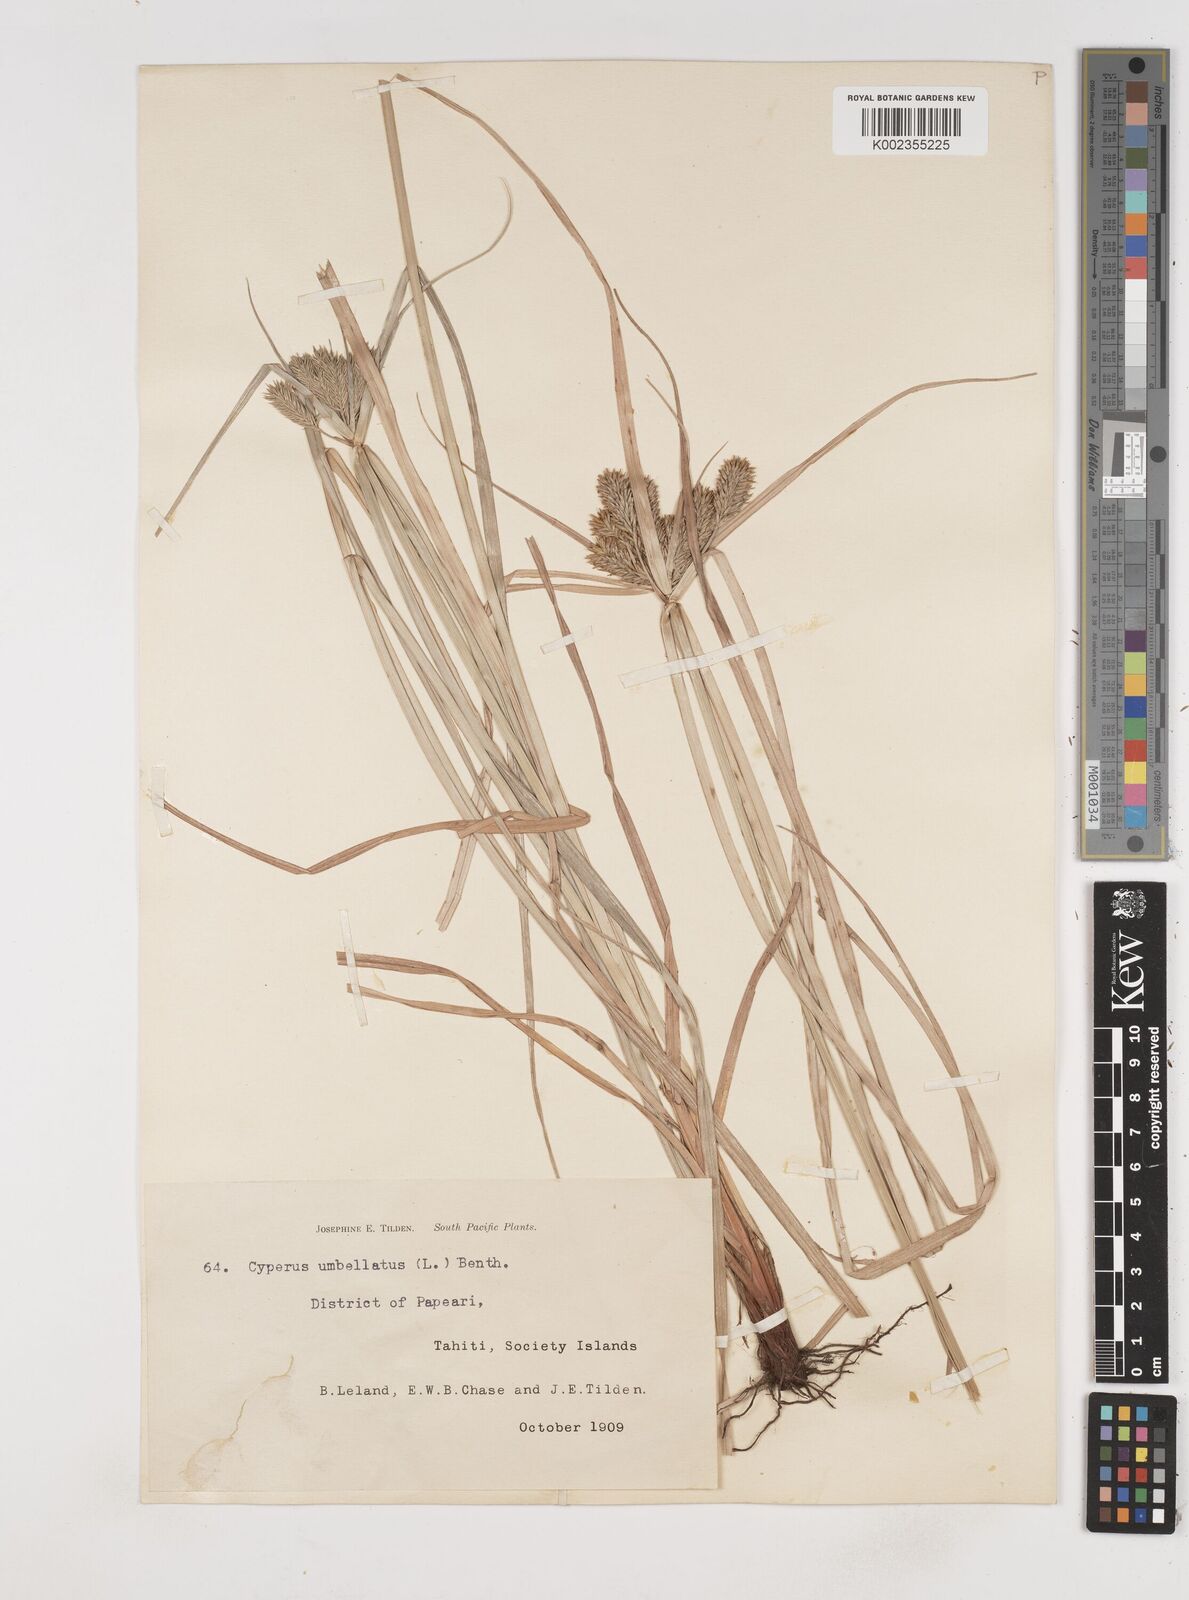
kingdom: Plantae
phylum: Tracheophyta
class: Liliopsida
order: Poales
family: Cyperaceae
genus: Cyperus
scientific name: Cyperus cyperinus
